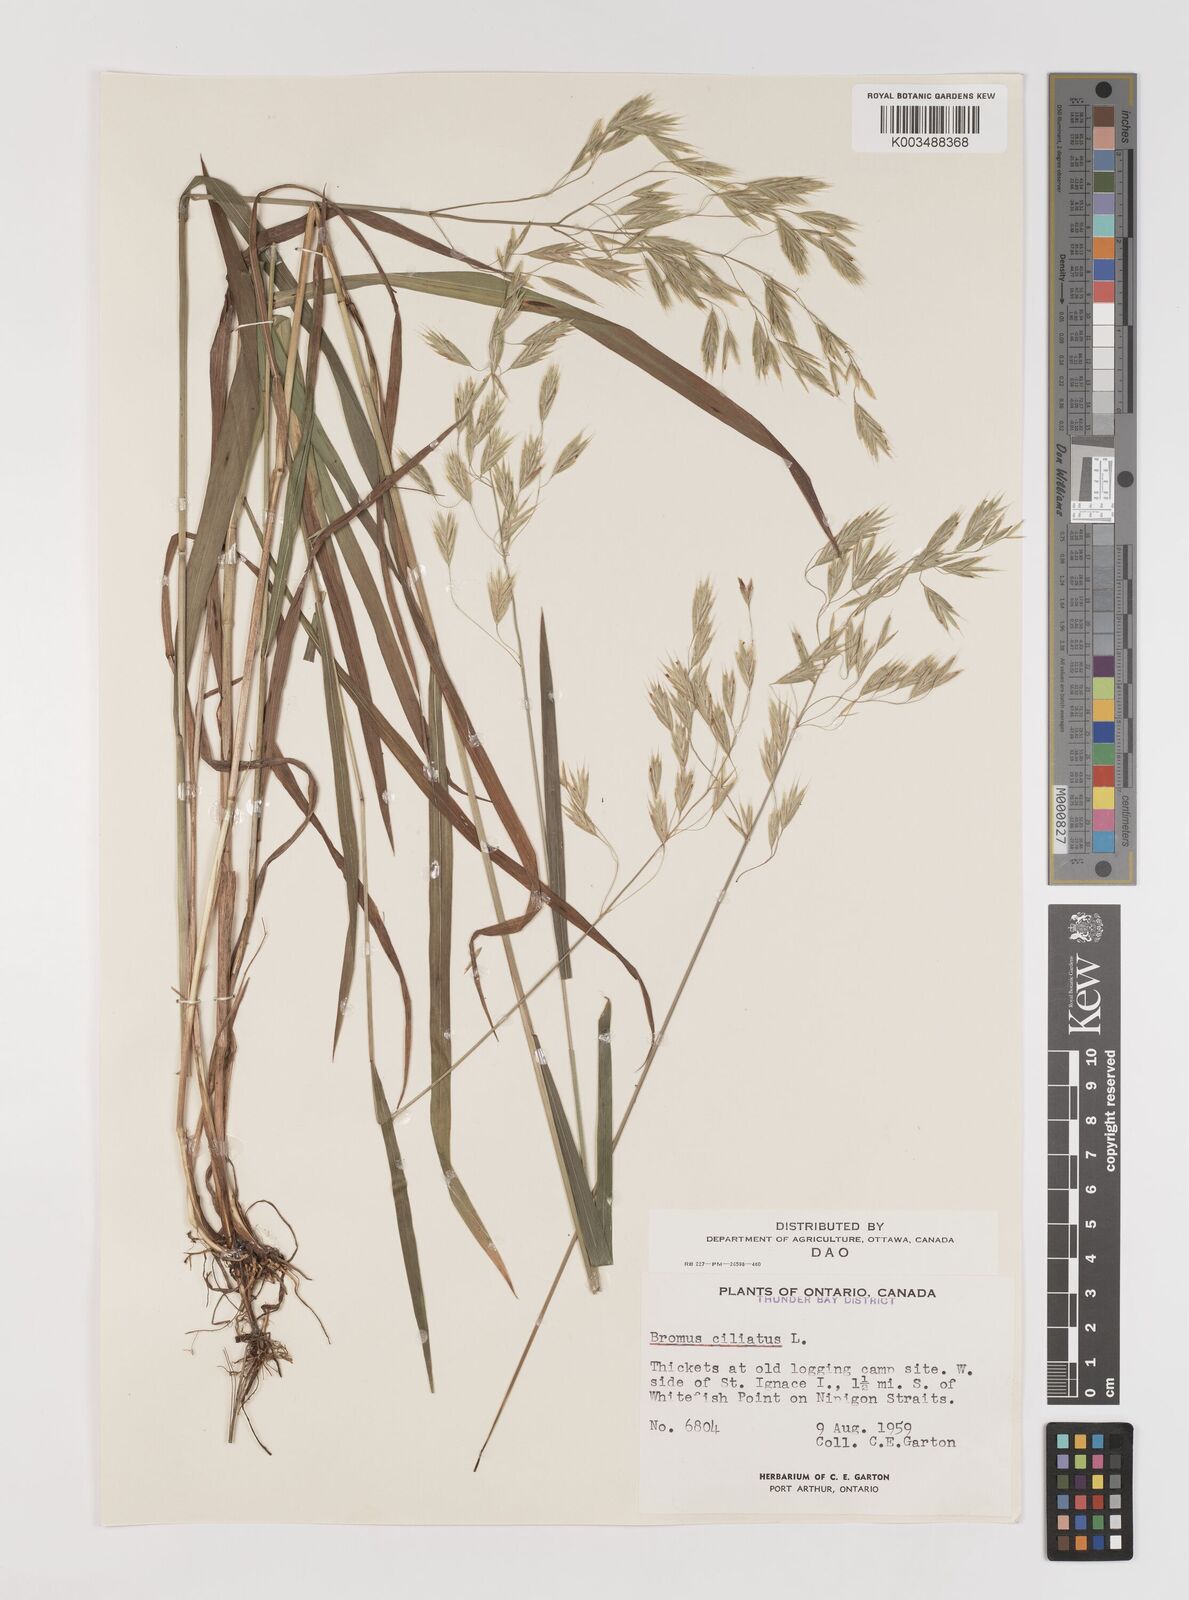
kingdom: Plantae
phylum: Tracheophyta
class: Liliopsida
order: Poales
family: Poaceae
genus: Bromus
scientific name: Bromus ciliatus
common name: Fringe brome
